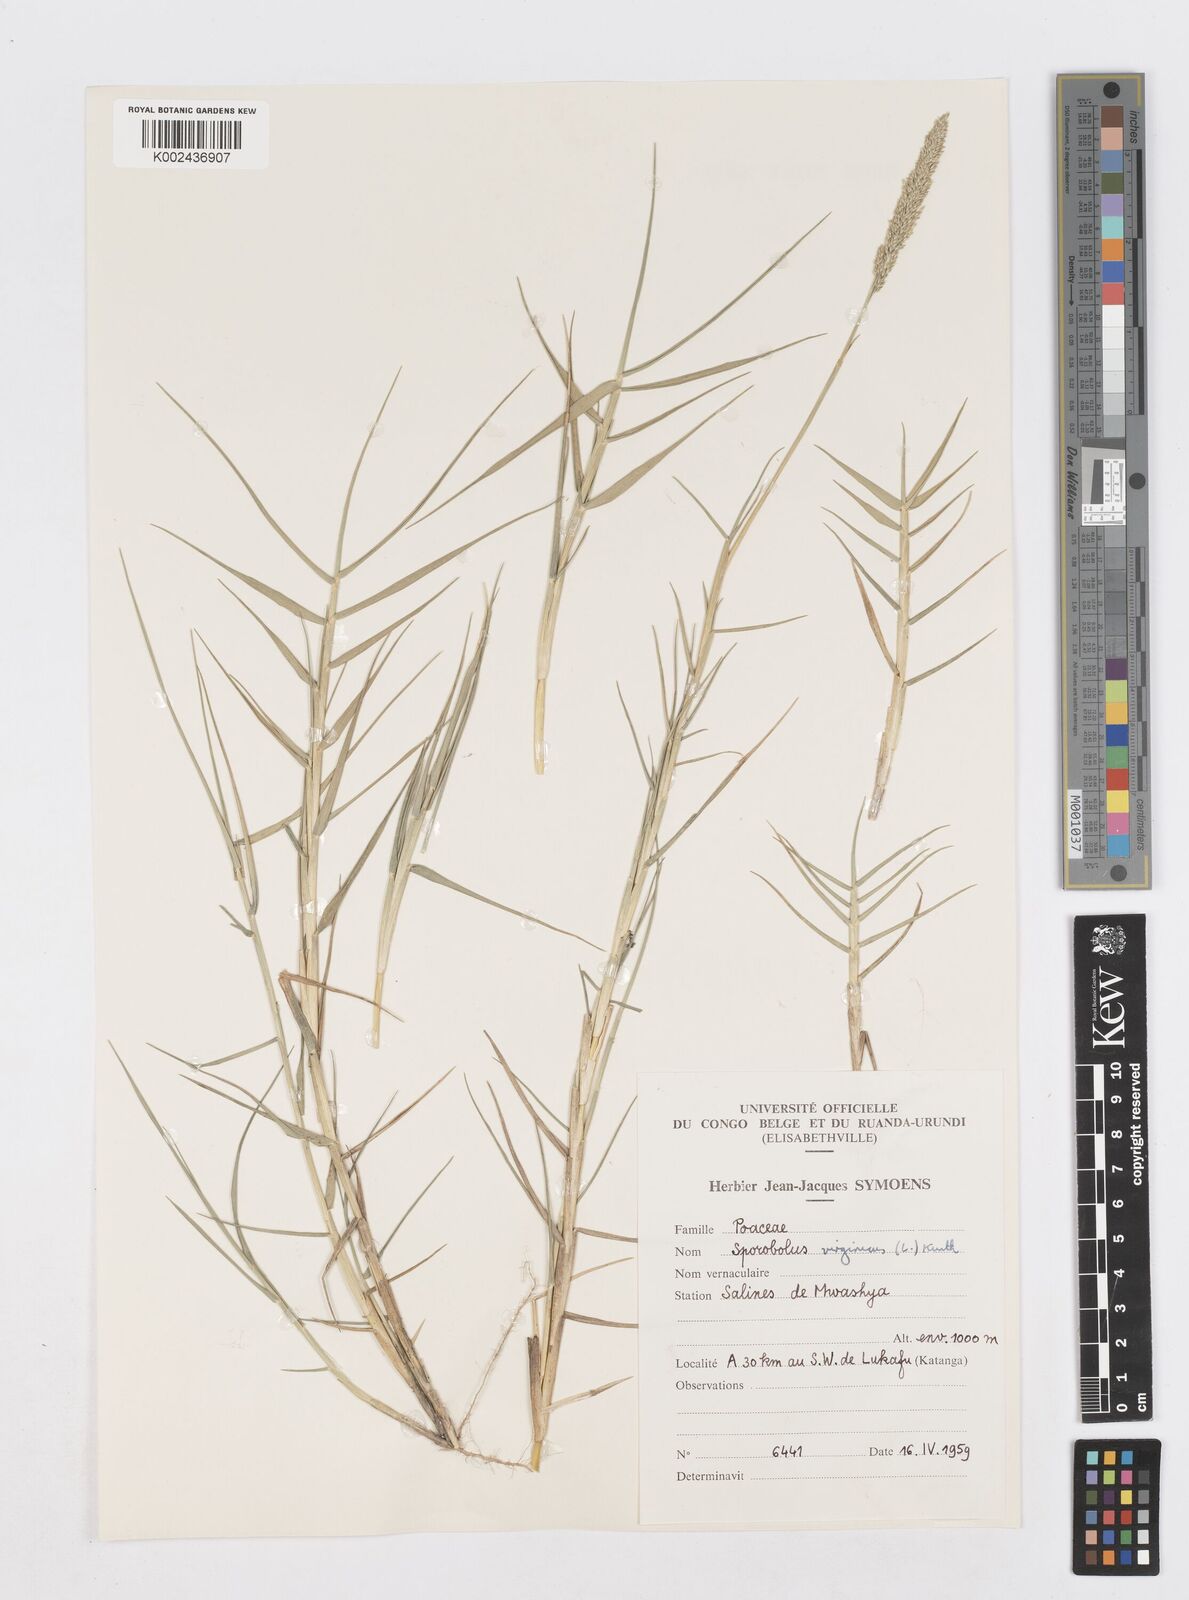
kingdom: Plantae
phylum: Tracheophyta
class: Liliopsida
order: Poales
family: Poaceae
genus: Sporobolus
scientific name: Sporobolus virginicus
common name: Beach dropseed
